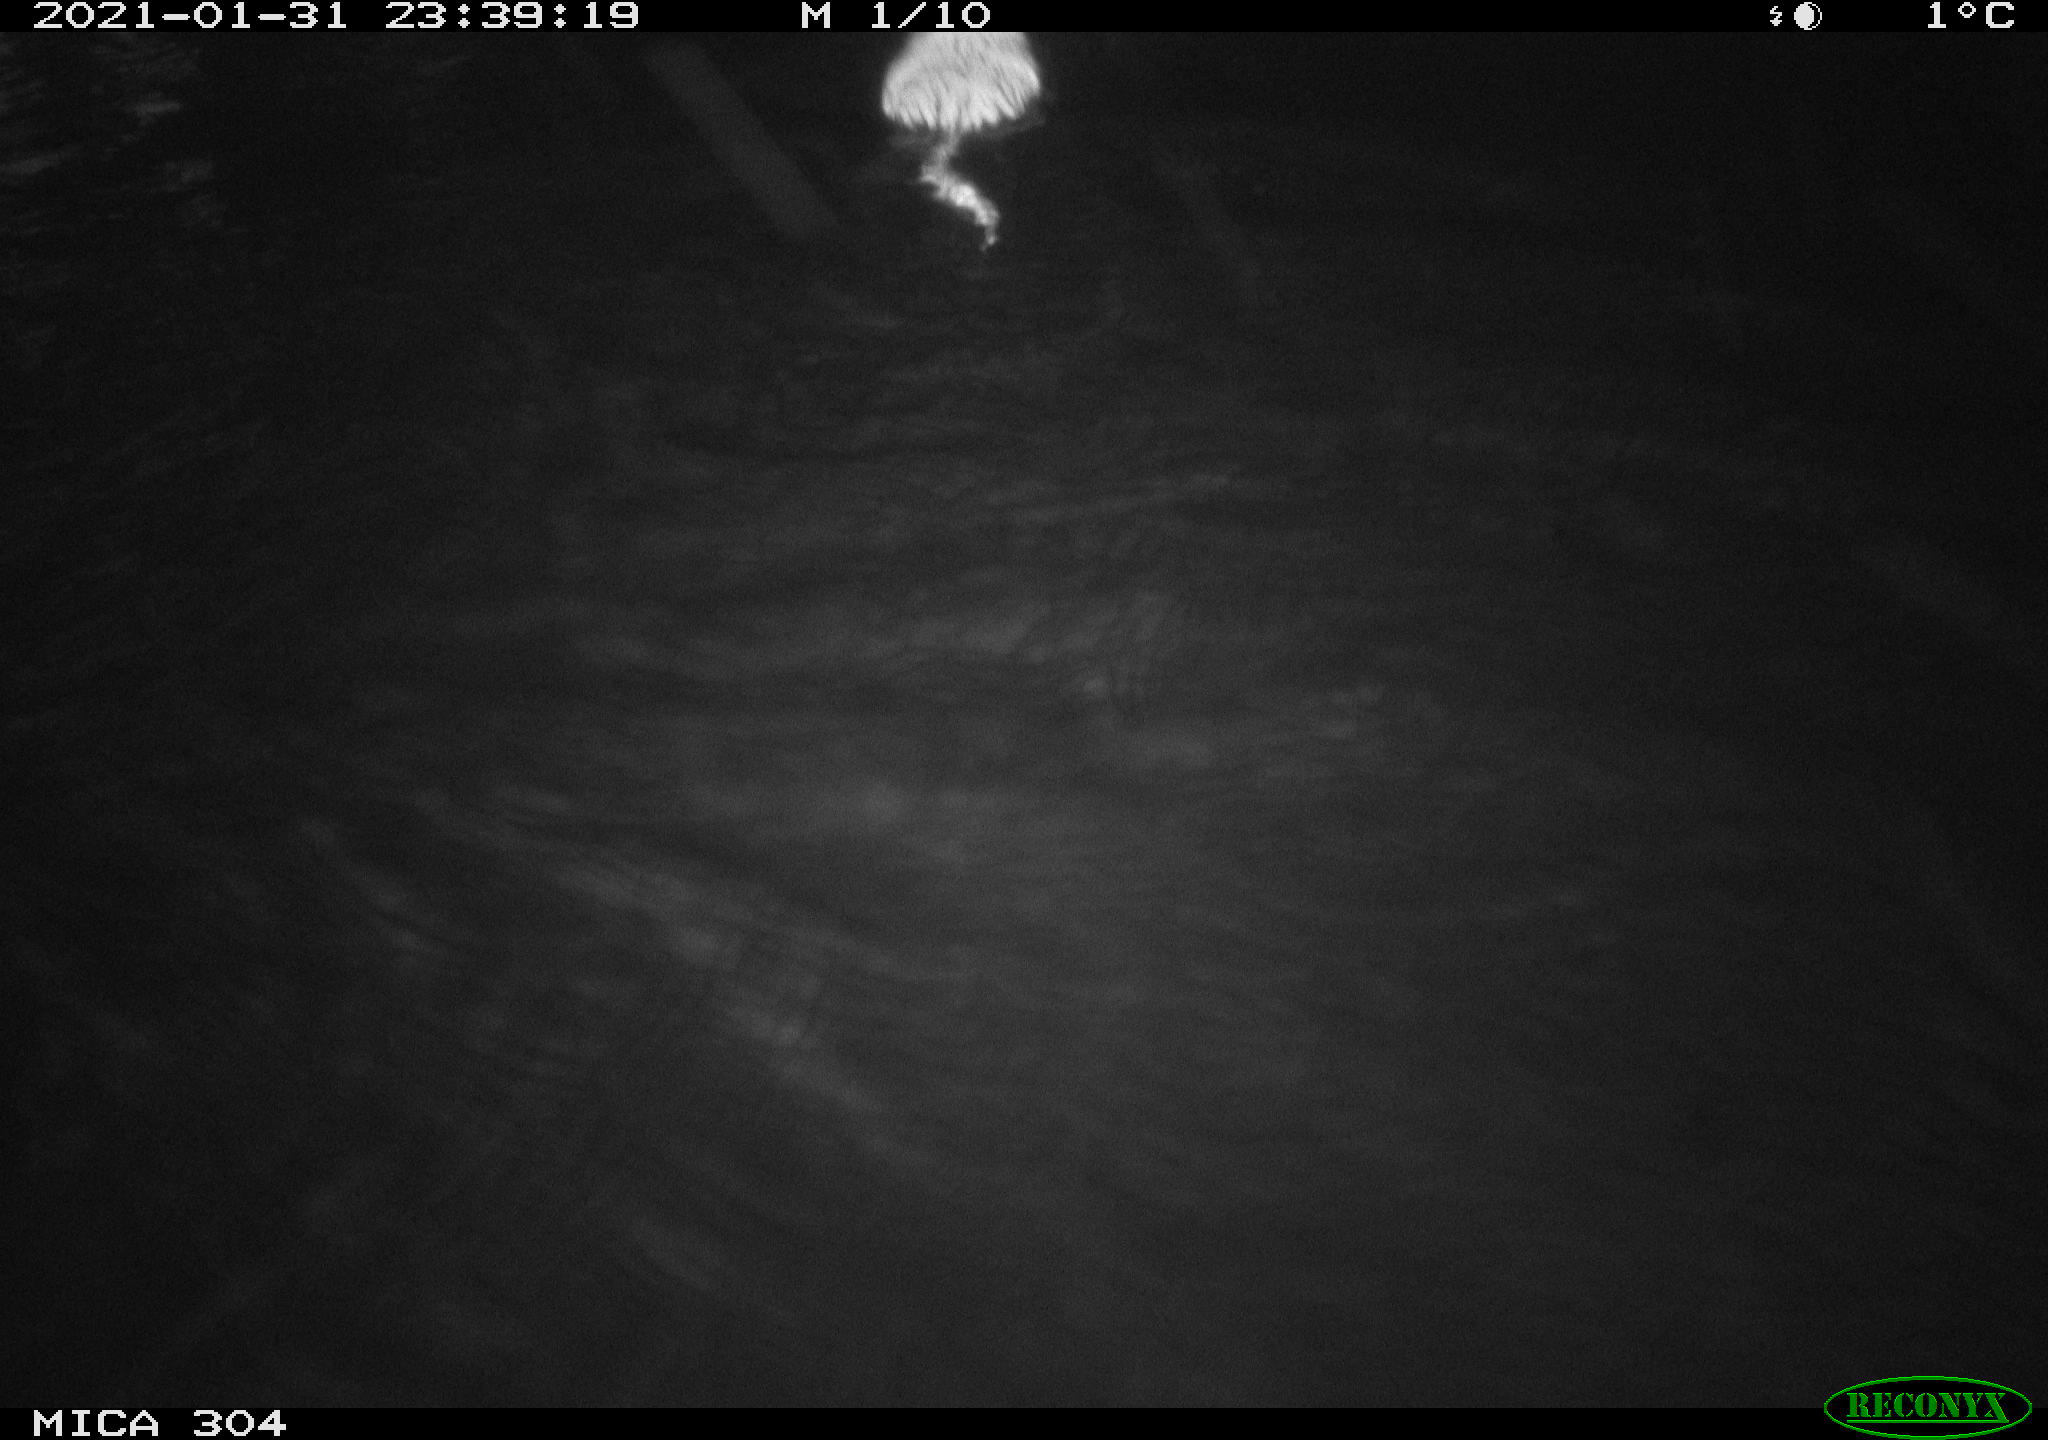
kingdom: Animalia
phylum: Chordata
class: Mammalia
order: Rodentia
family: Cricetidae
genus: Ondatra
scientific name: Ondatra zibethicus
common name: Muskrat
